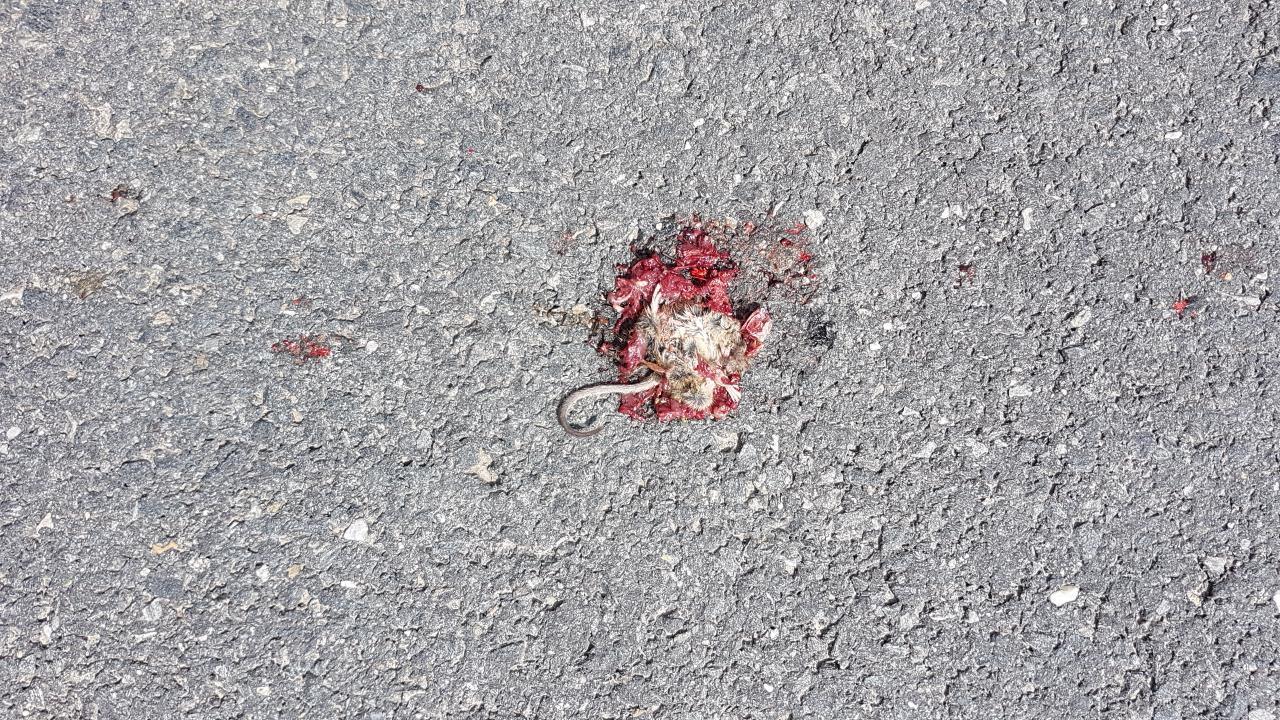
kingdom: Animalia
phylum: Chordata
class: Mammalia
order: Rodentia
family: Muridae
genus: Apodemus
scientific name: Apodemus
